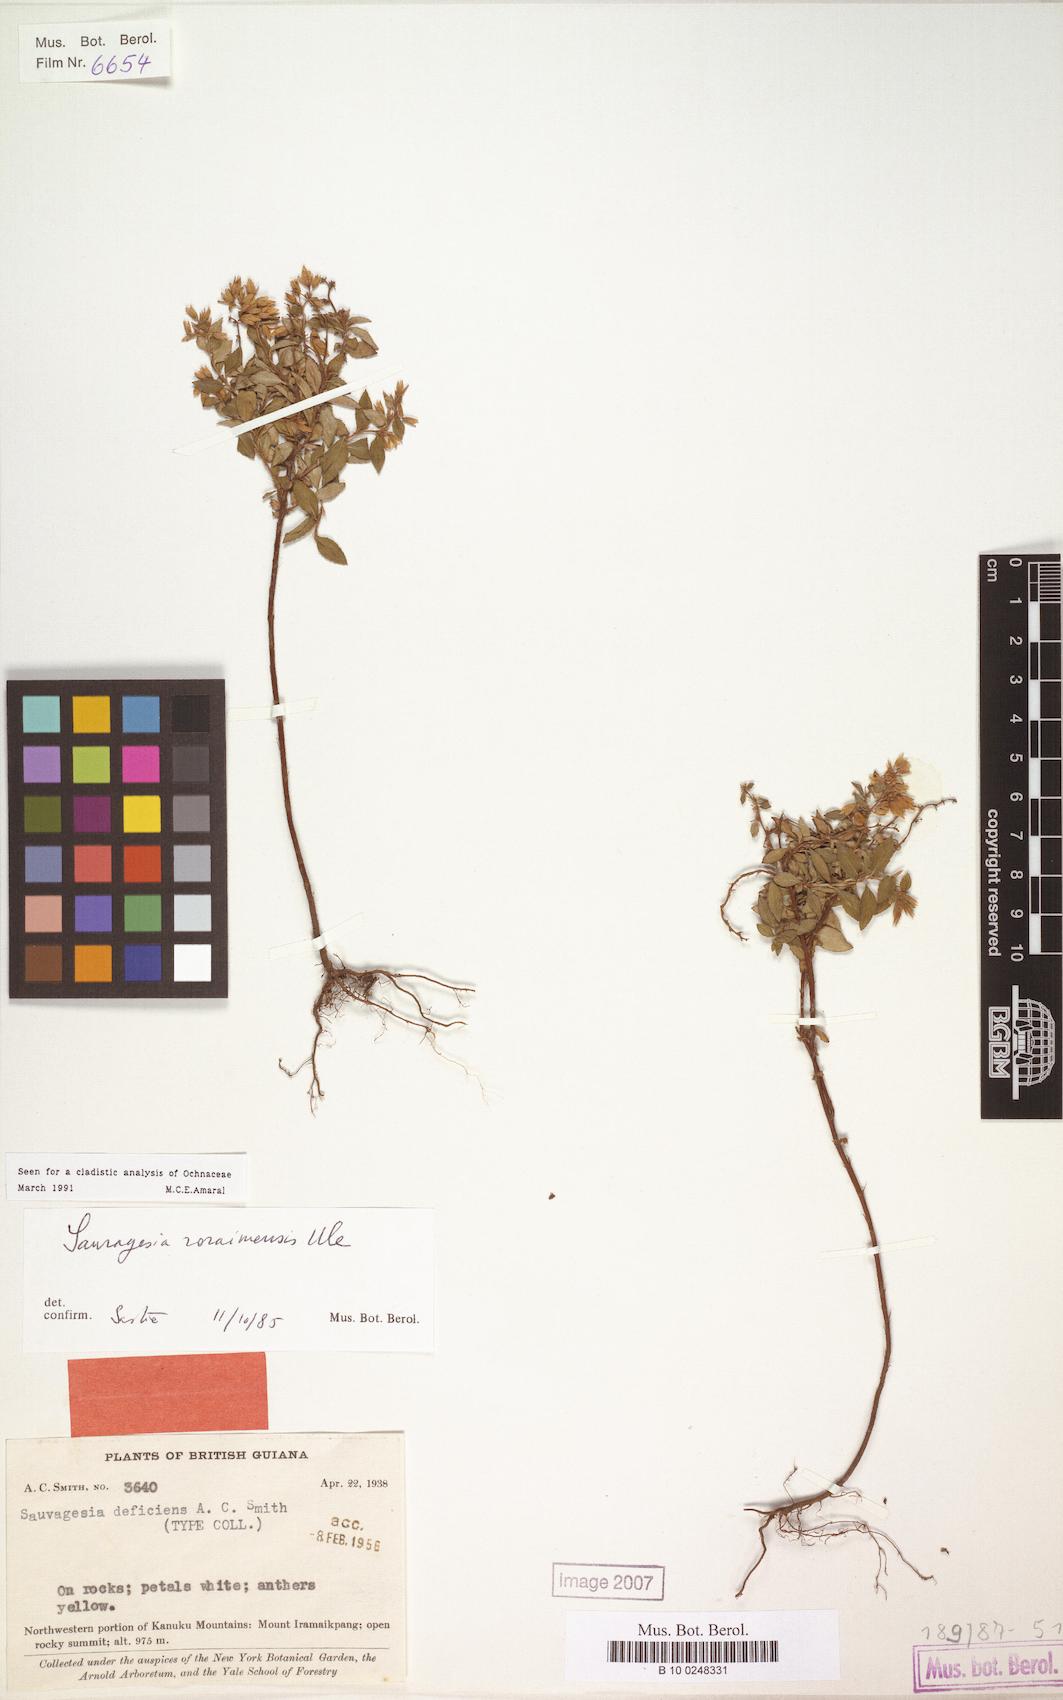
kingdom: Plantae
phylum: Tracheophyta
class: Magnoliopsida
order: Malpighiales
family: Ochnaceae
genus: Sauvagesia
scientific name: Sauvagesia roraimensis
